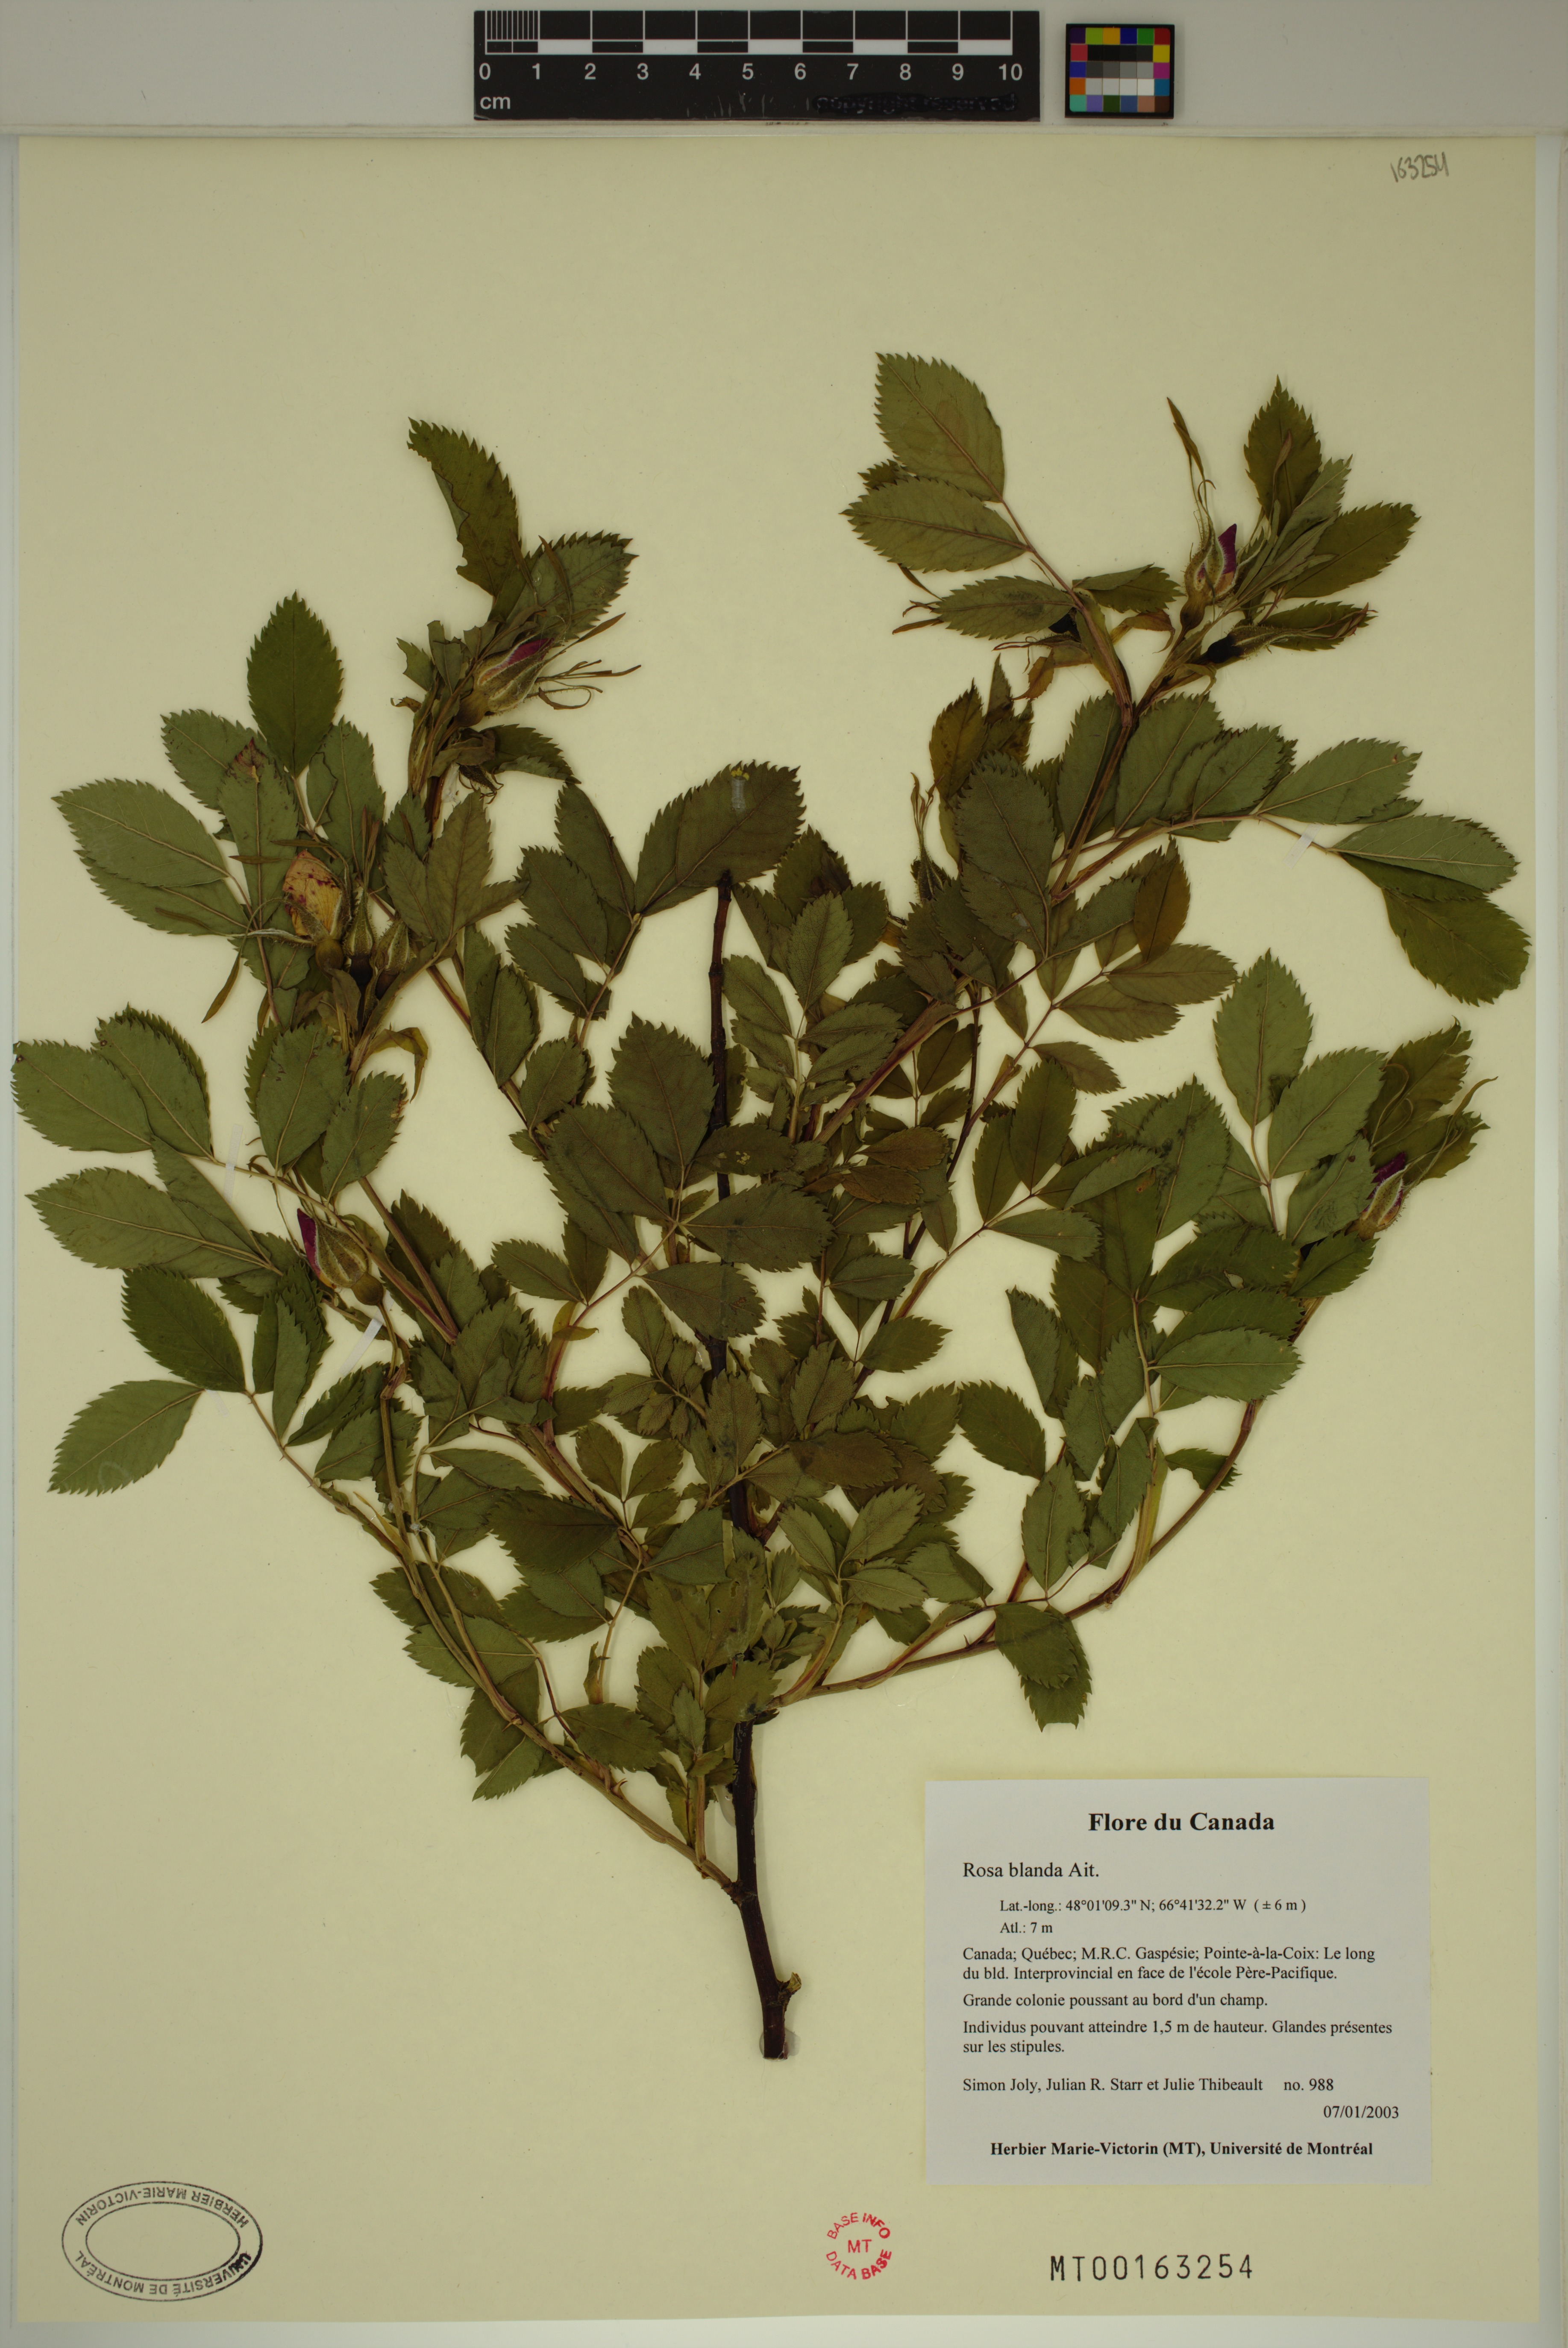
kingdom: Plantae
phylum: Tracheophyta
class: Magnoliopsida
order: Rosales
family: Rosaceae
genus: Rosa
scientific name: Rosa blanda
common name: Smooth rose
